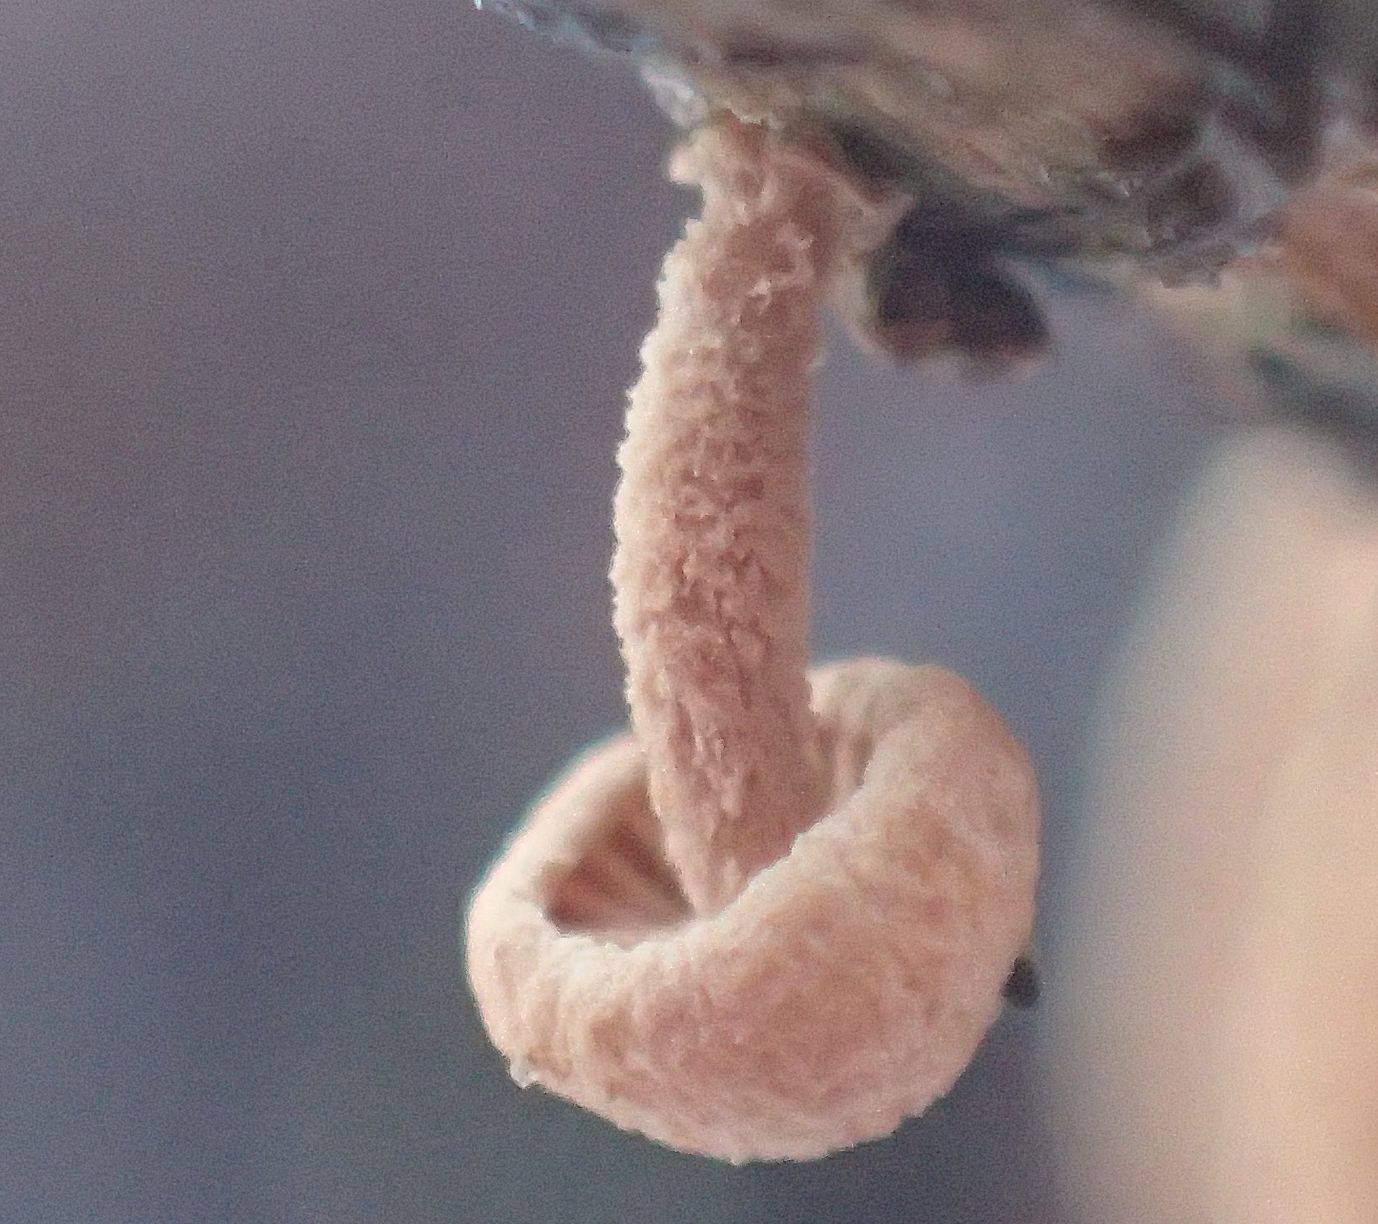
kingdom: Fungi
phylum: Basidiomycota
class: Agaricomycetes
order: Agaricales
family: Omphalotaceae
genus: Collybiopsis
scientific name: Collybiopsis ramealis
